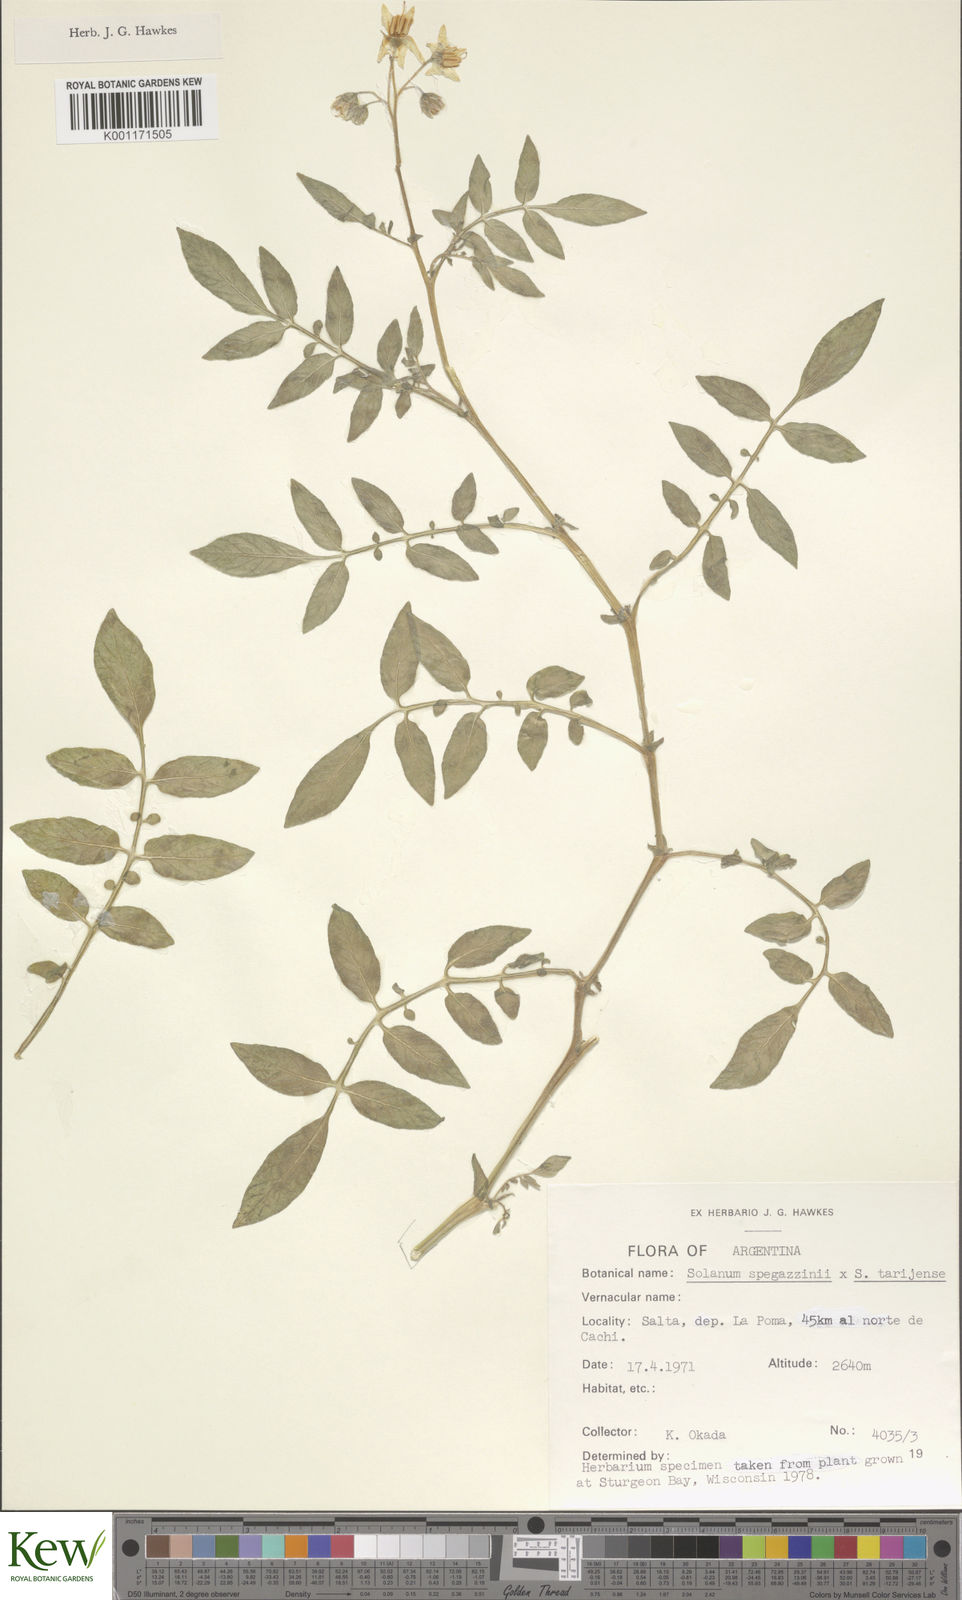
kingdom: Plantae
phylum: Tracheophyta
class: Magnoliopsida
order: Solanales
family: Solanaceae
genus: Solanum
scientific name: Solanum tarijense
